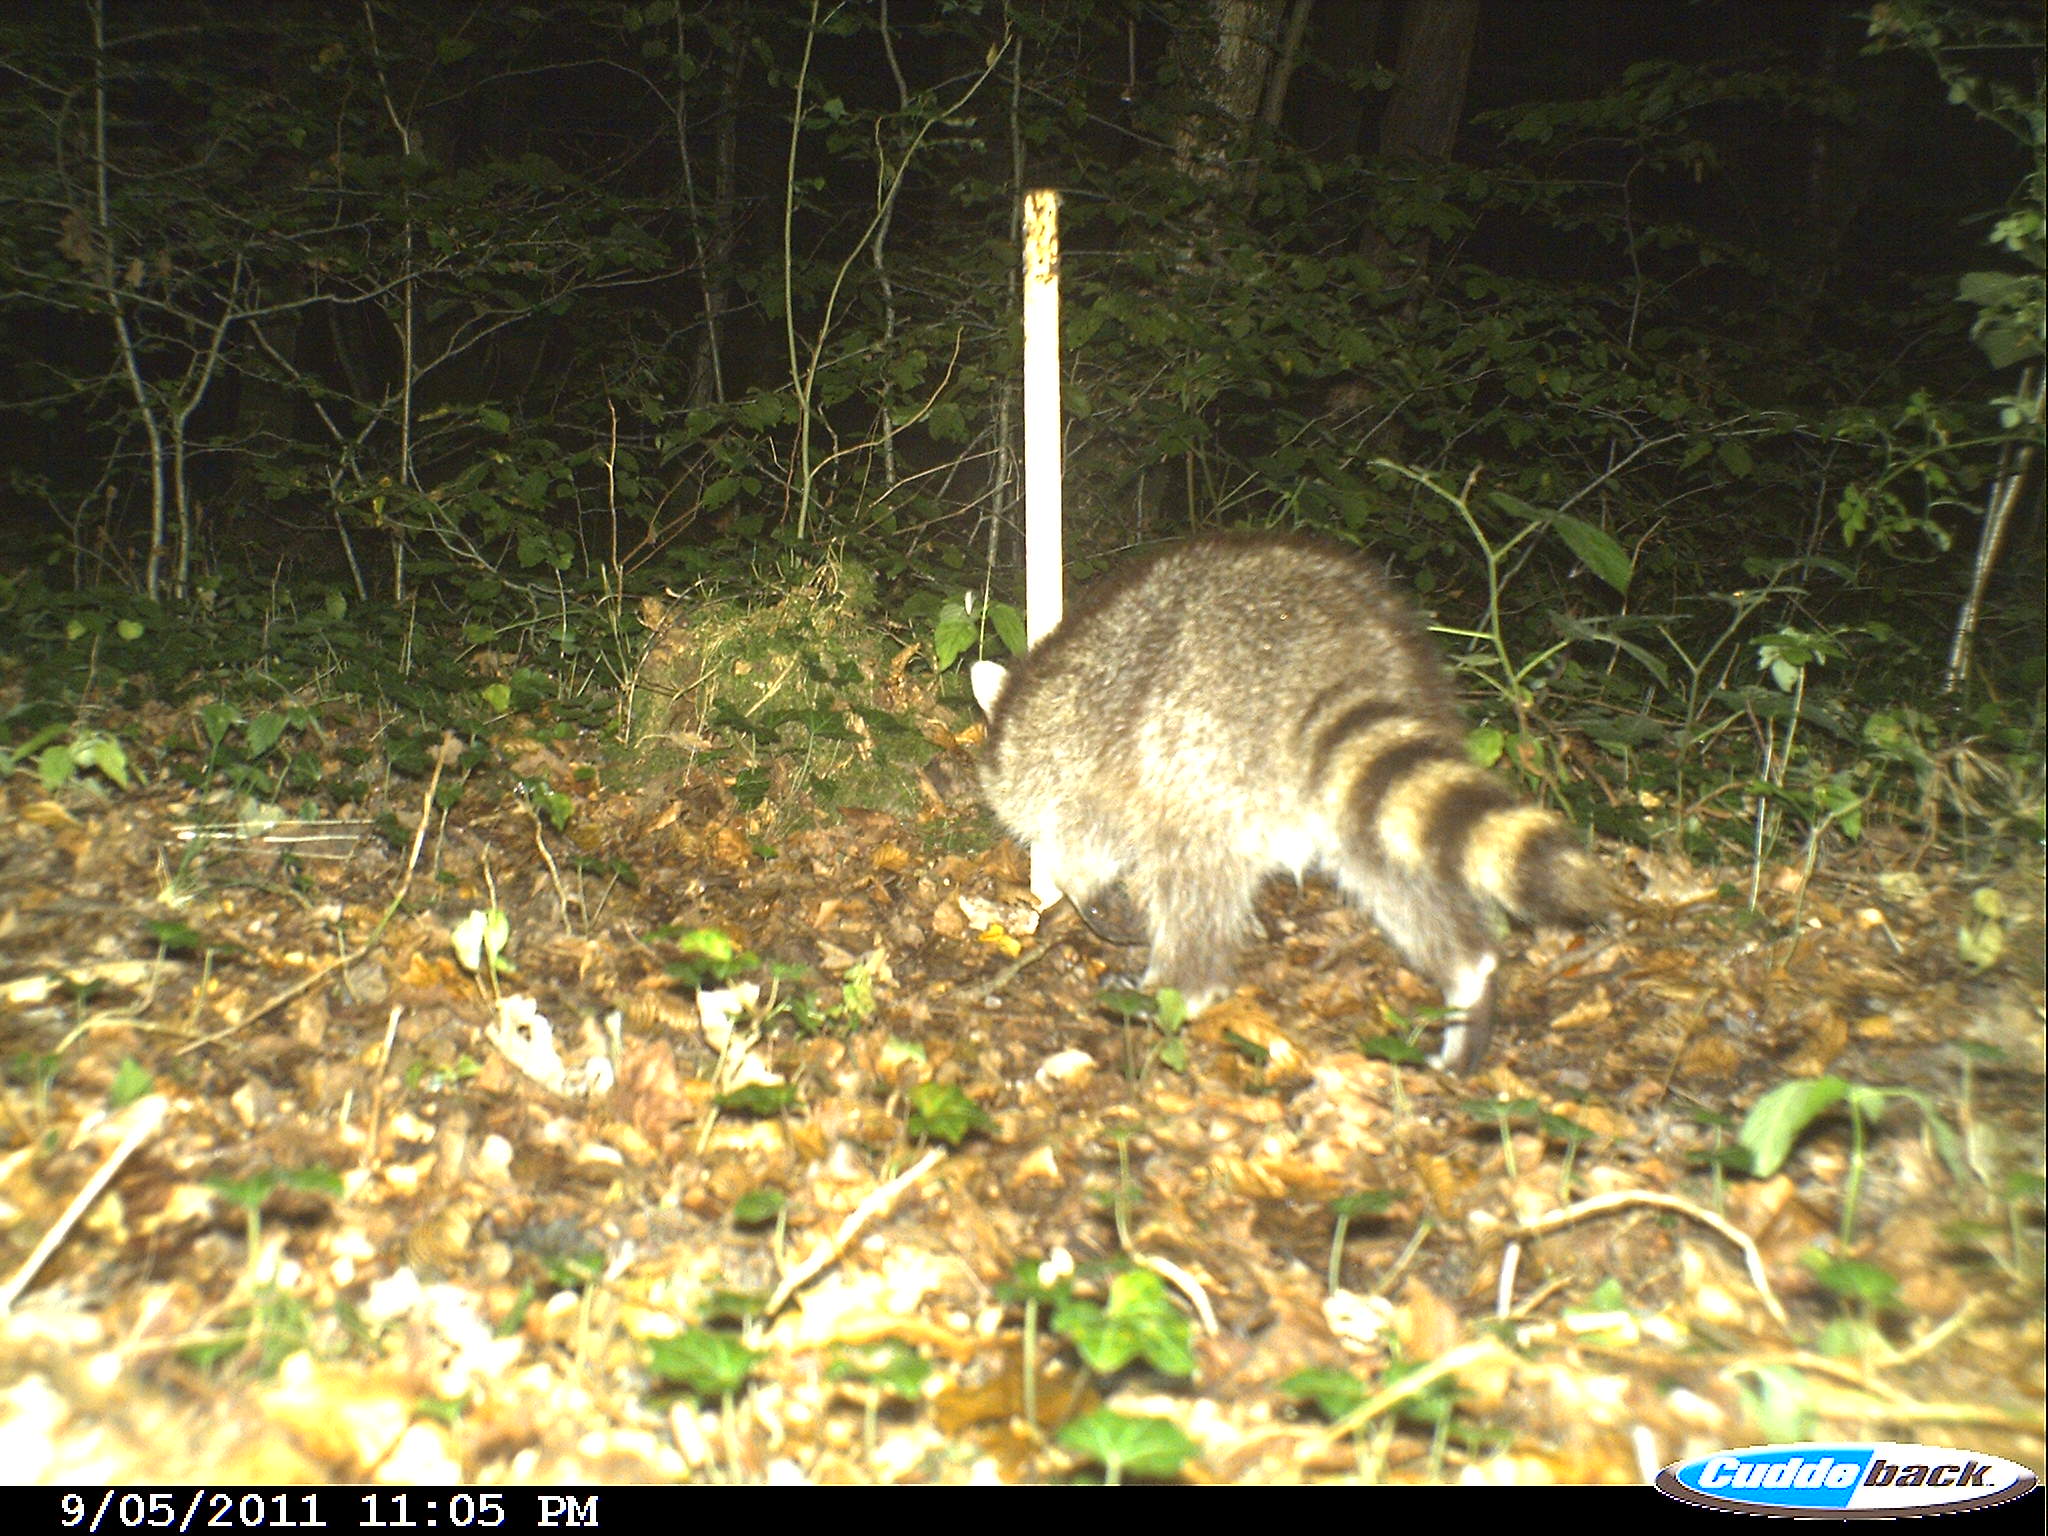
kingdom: Animalia
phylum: Chordata
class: Mammalia
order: Carnivora
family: Procyonidae
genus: Procyon
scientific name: Procyon lotor
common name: Raccoon
